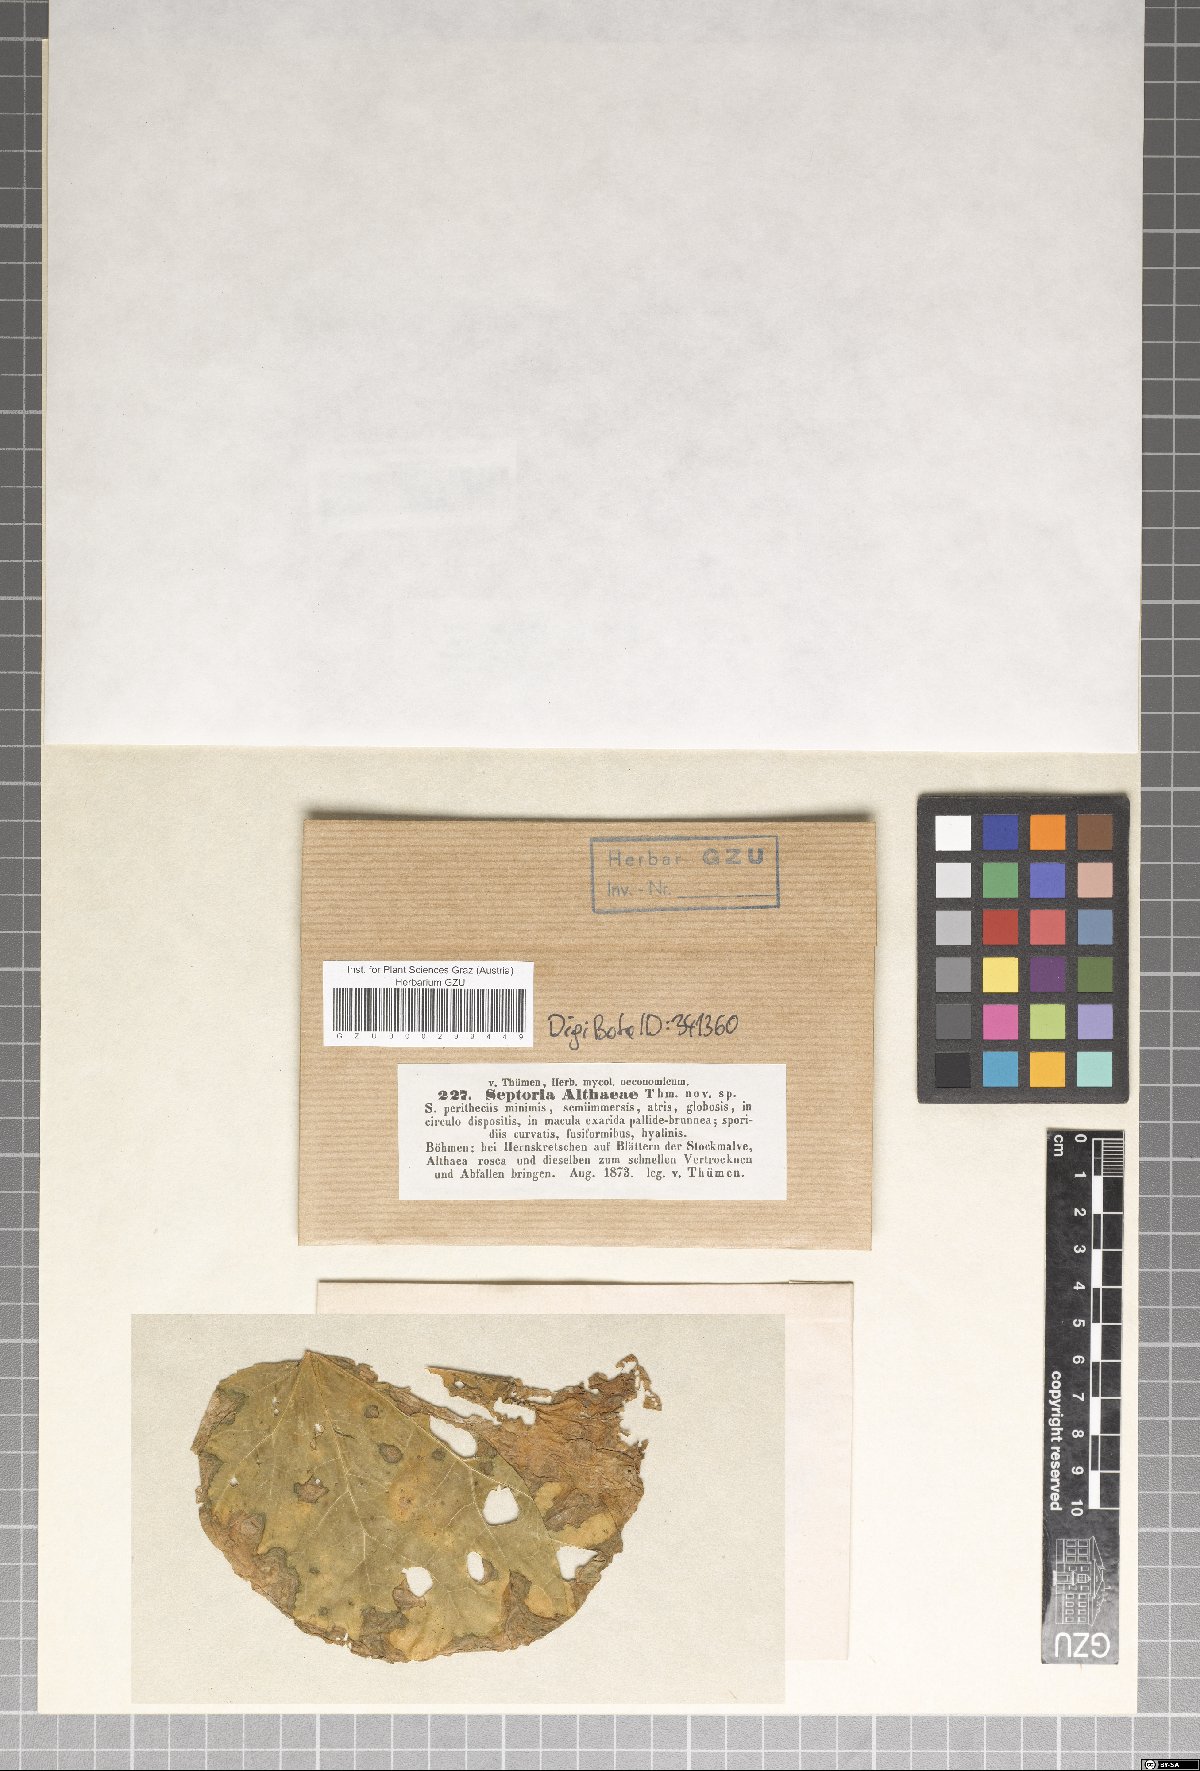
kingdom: Fungi
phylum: Ascomycota
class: Dothideomycetes
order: Mycosphaerellales
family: Mycosphaerellaceae
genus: Septoria
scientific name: Septoria bunkinae
